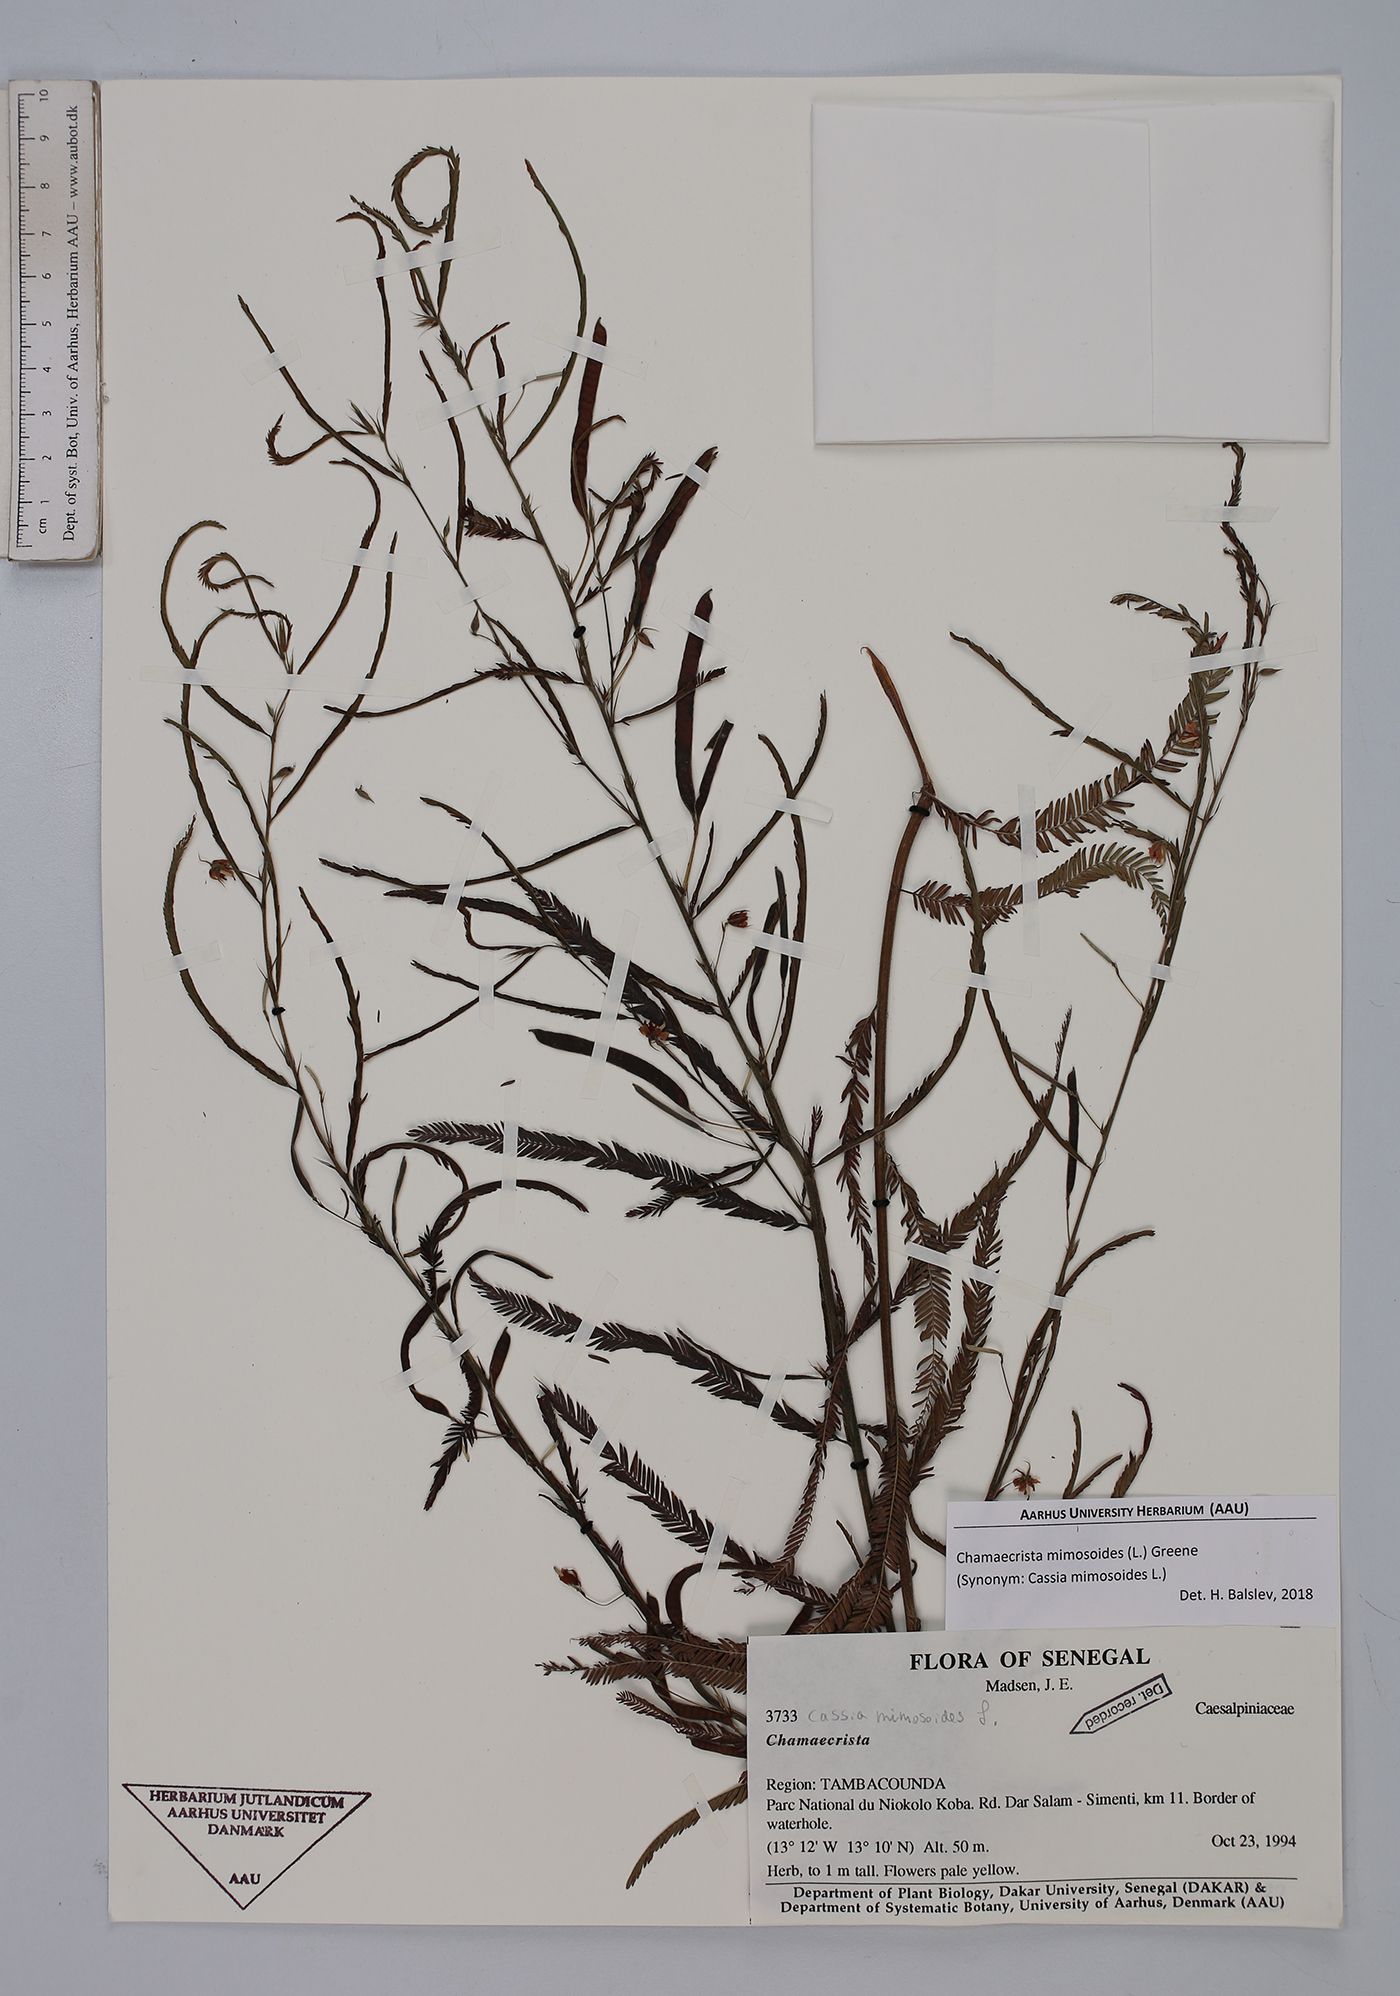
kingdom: Plantae
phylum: Tracheophyta
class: Magnoliopsida
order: Fabales
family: Fabaceae
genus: Chamaecrista
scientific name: Chamaecrista mimosoides
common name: Fish-bone cassia
